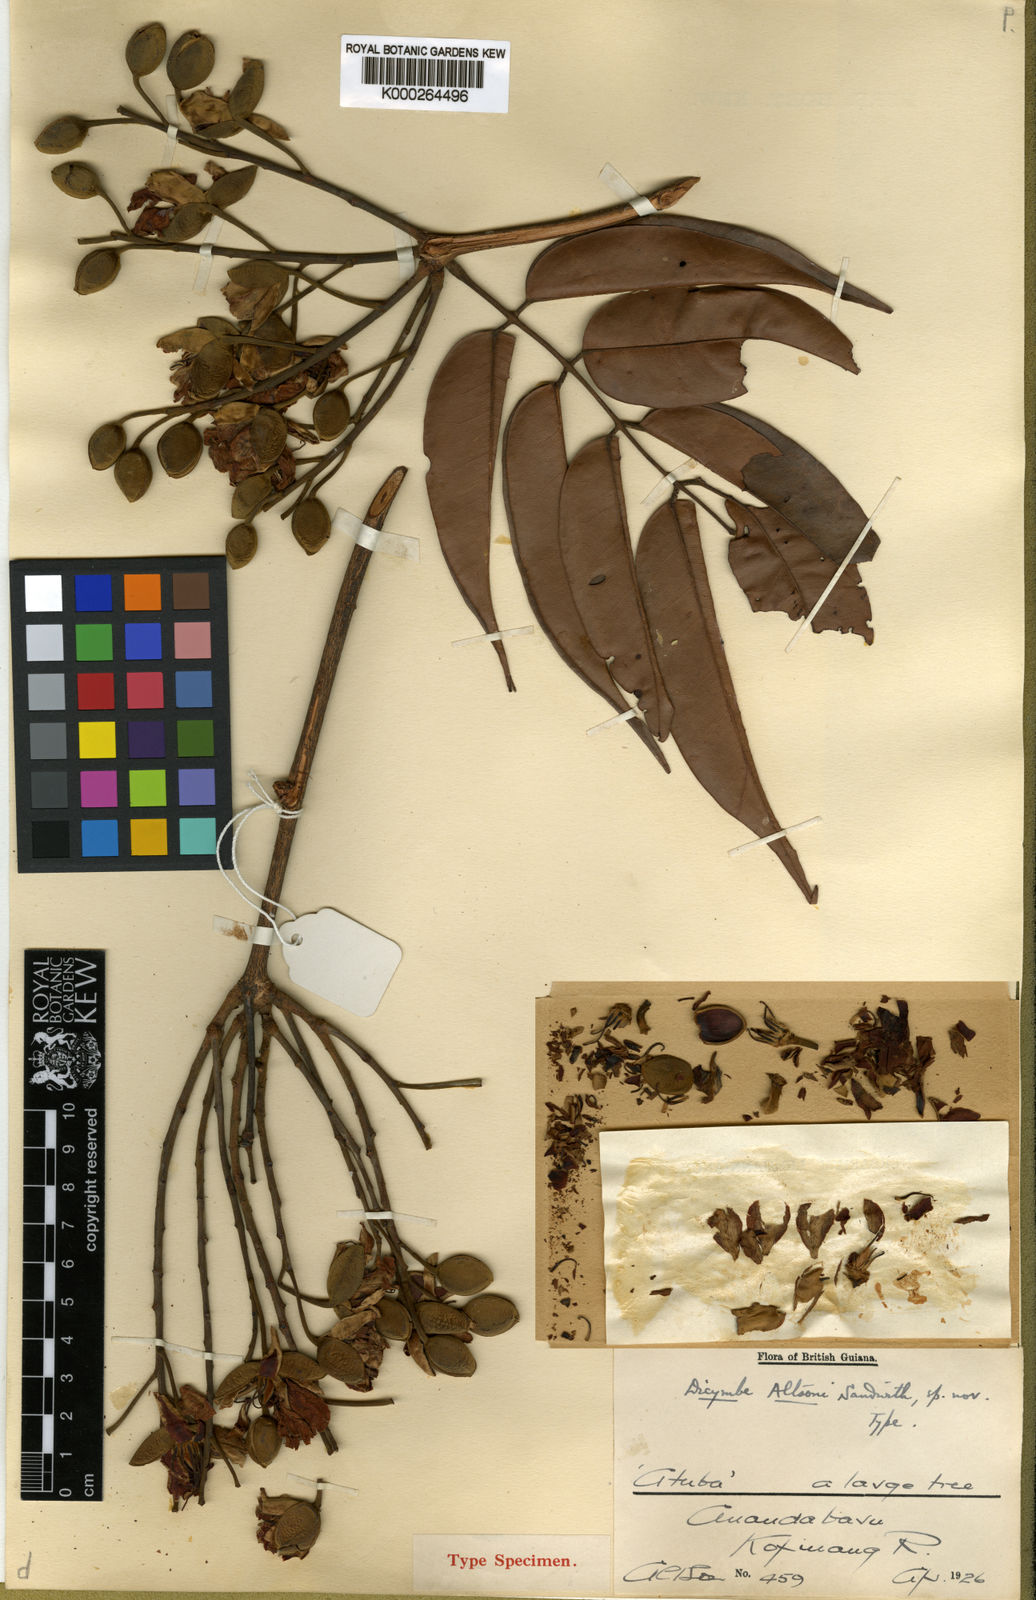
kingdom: Plantae
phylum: Tracheophyta
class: Magnoliopsida
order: Fabales
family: Fabaceae
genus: Dicymbe
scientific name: Dicymbe altsonii
